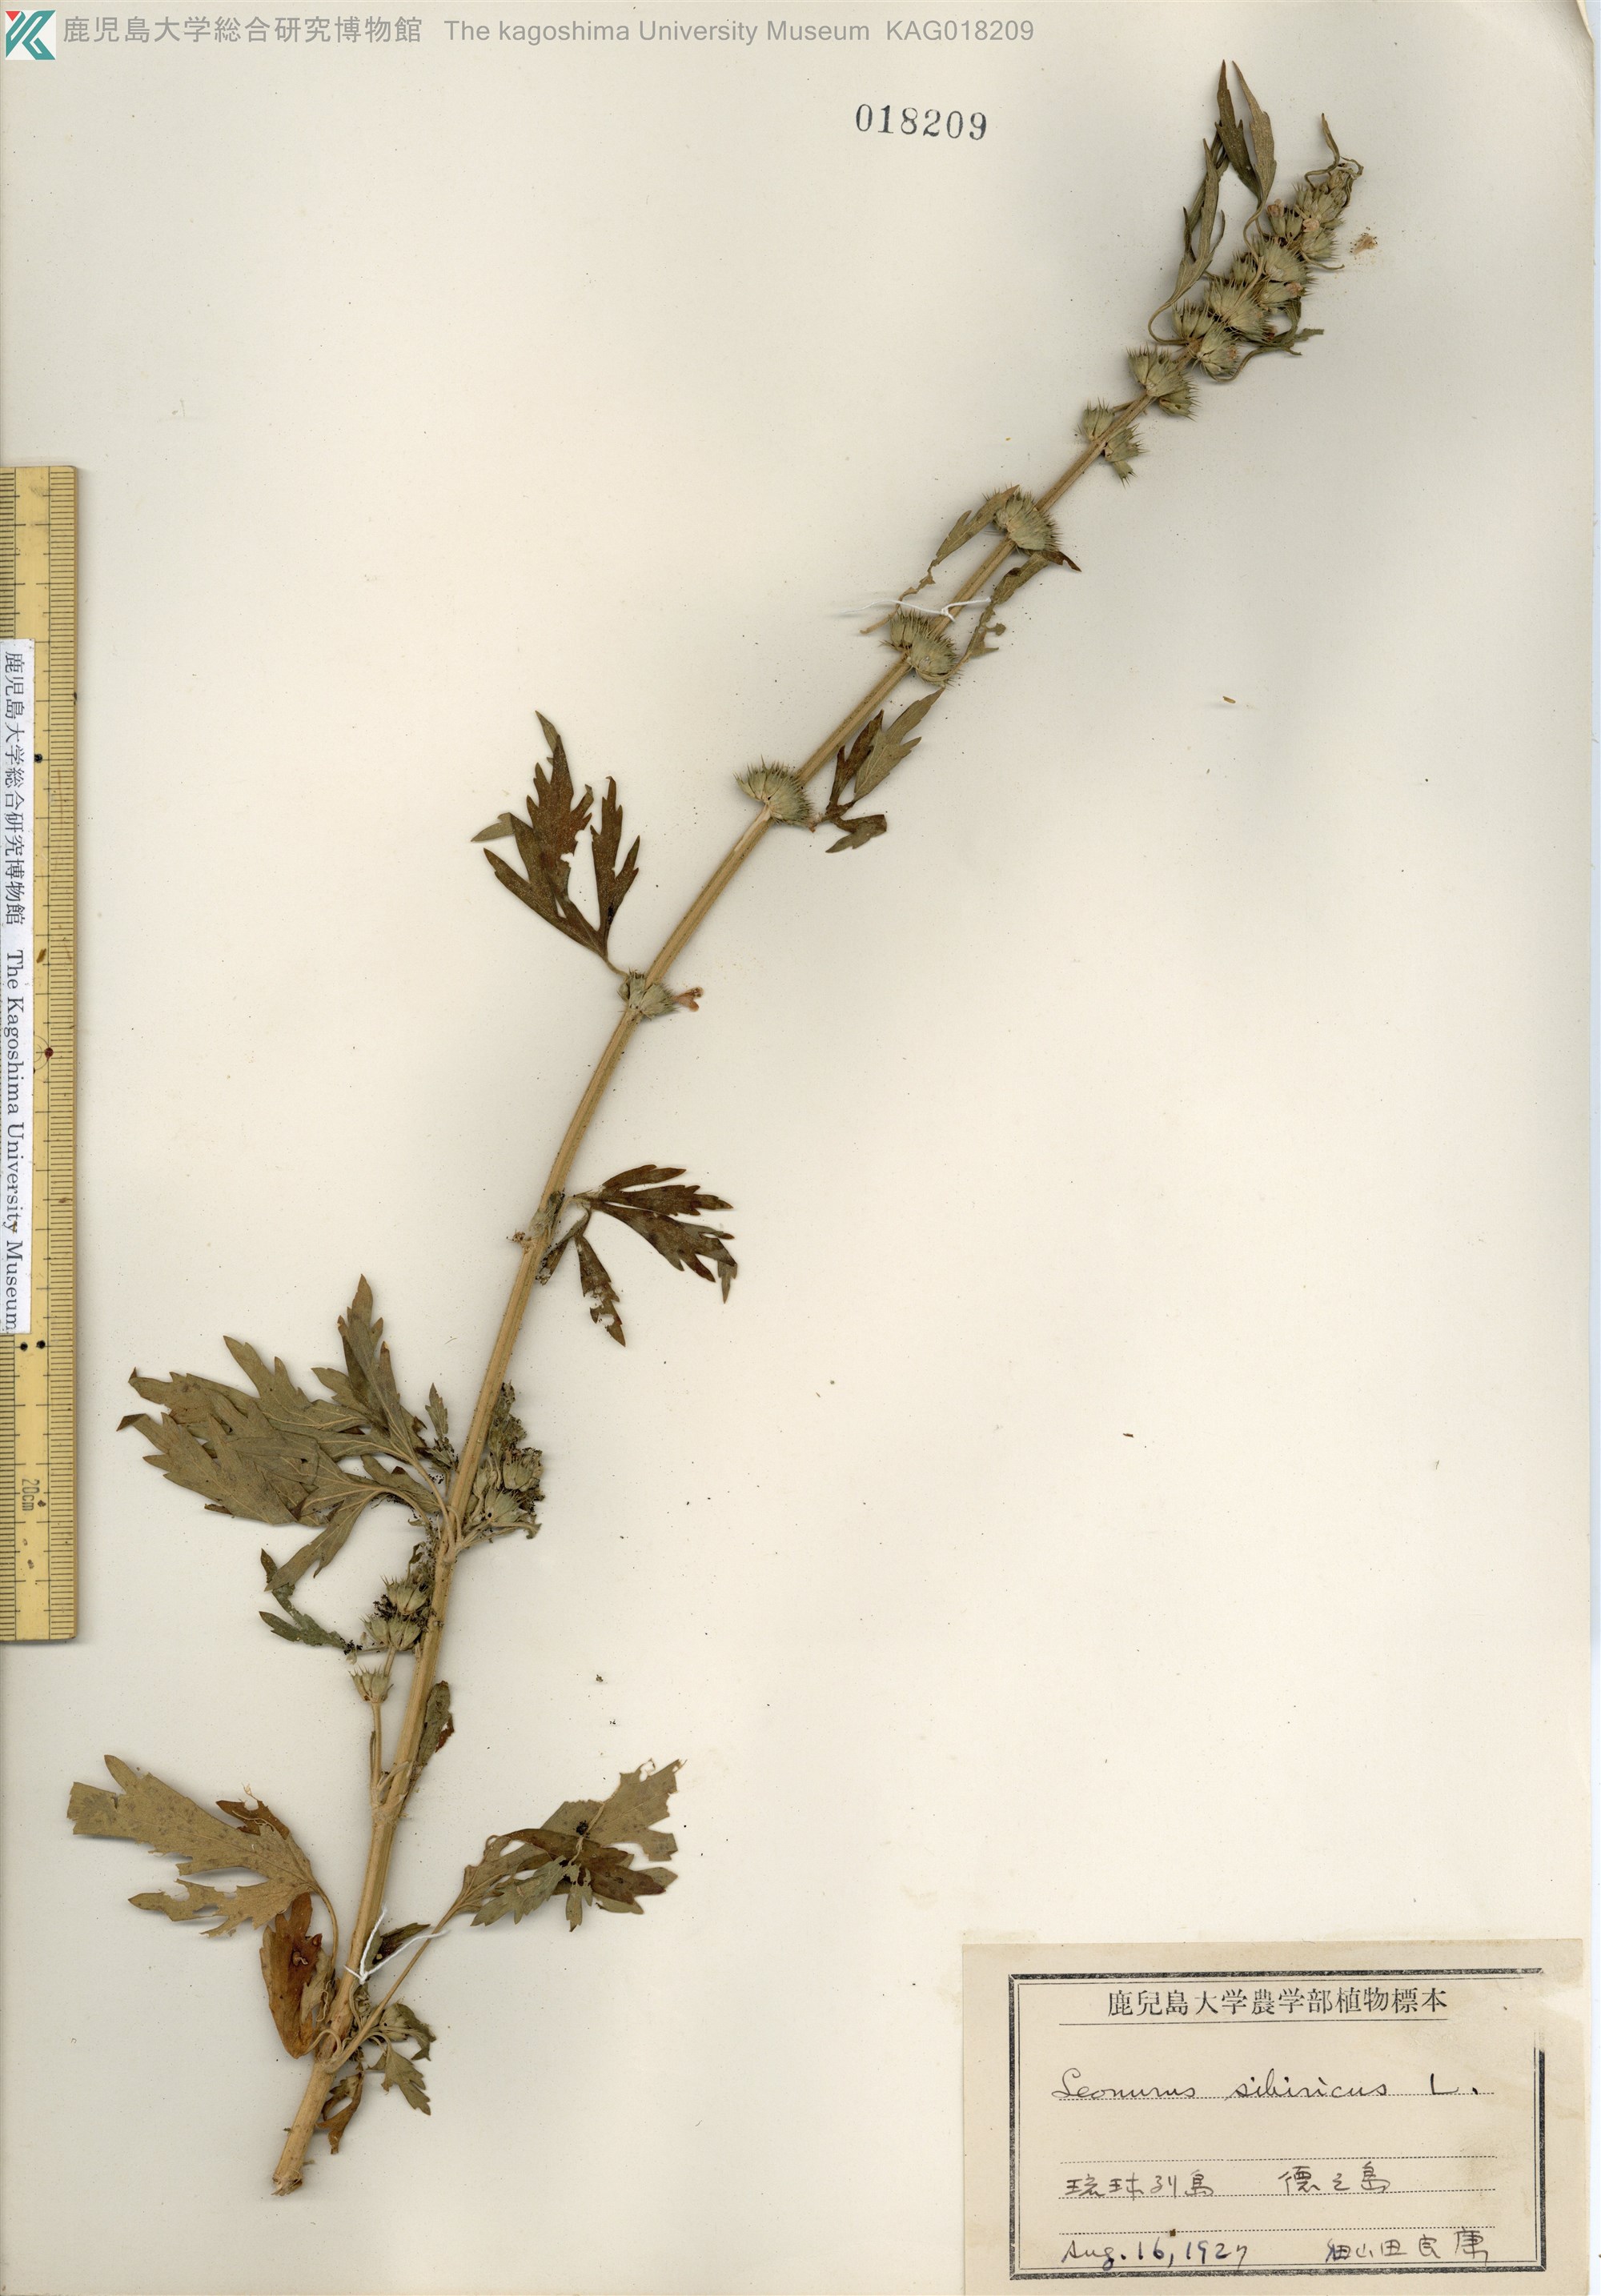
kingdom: Plantae
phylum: Tracheophyta
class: Magnoliopsida
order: Lamiales
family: Lamiaceae
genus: Leonurus
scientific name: Leonurus japonicus
